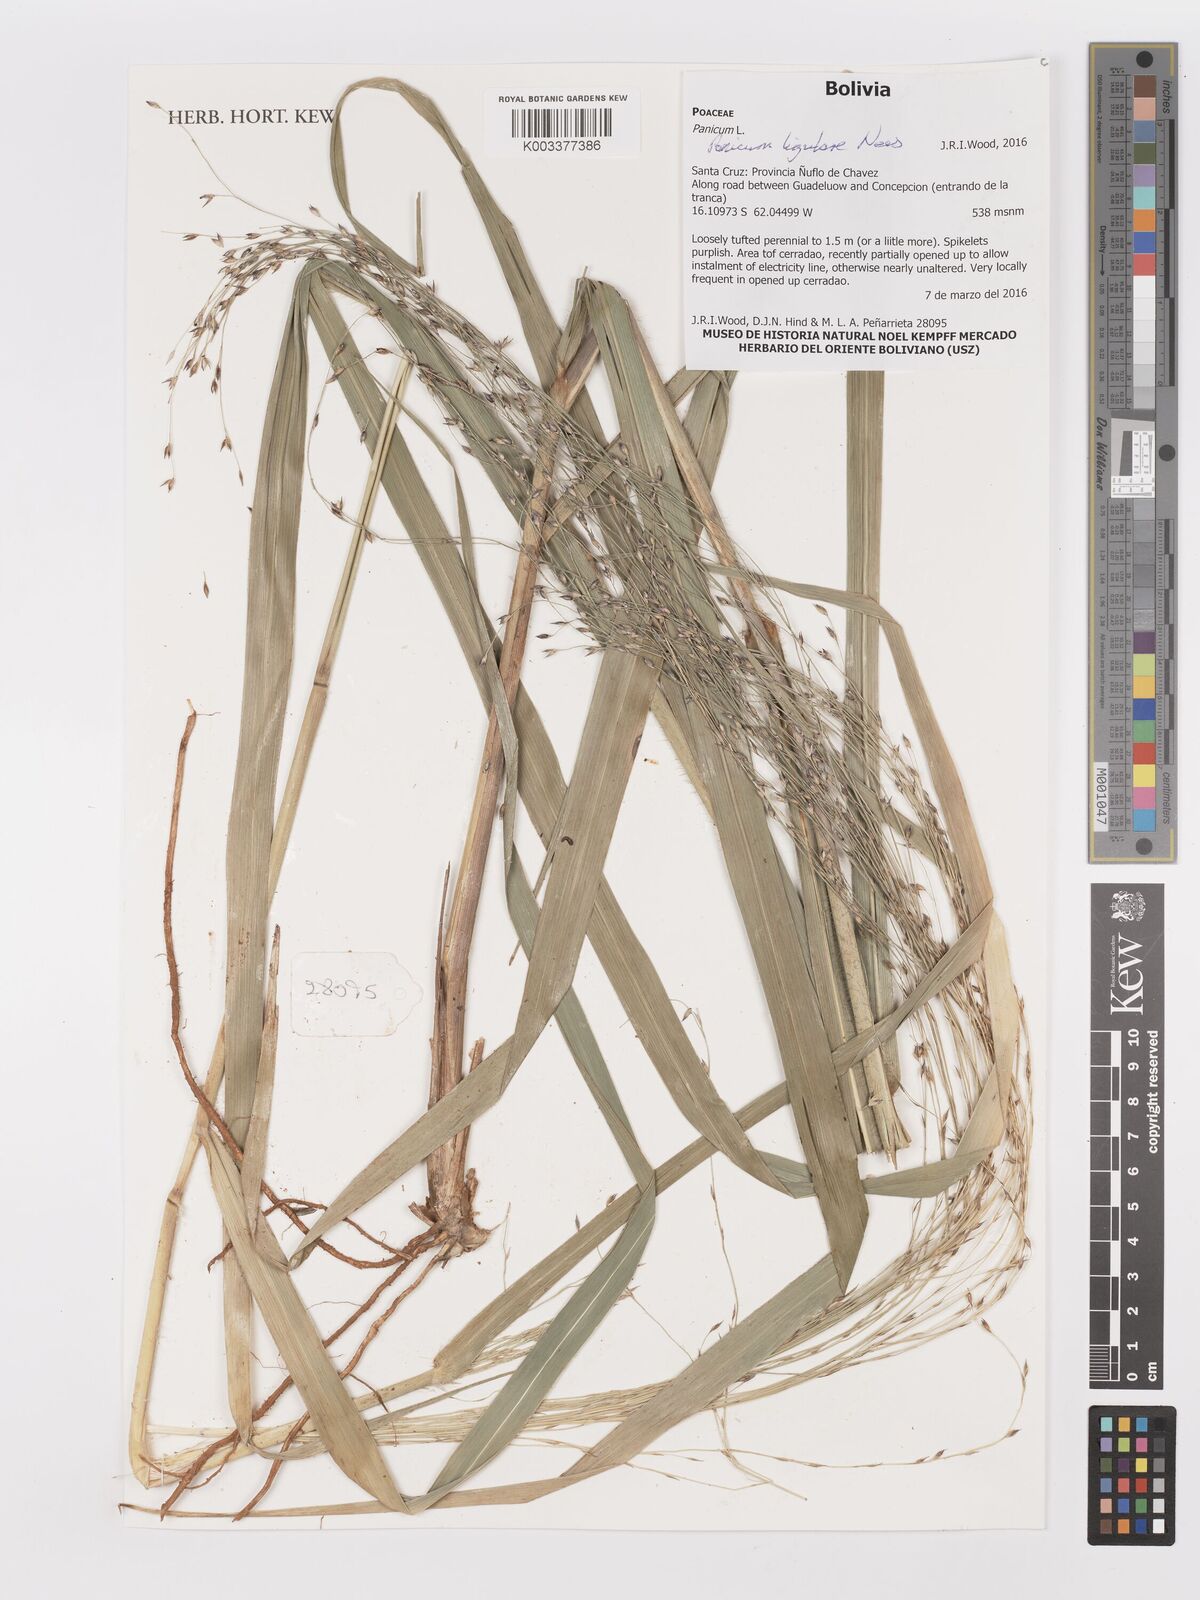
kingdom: Plantae
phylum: Tracheophyta
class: Liliopsida
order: Poales
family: Poaceae
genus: Panicum
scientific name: Panicum ligulare
